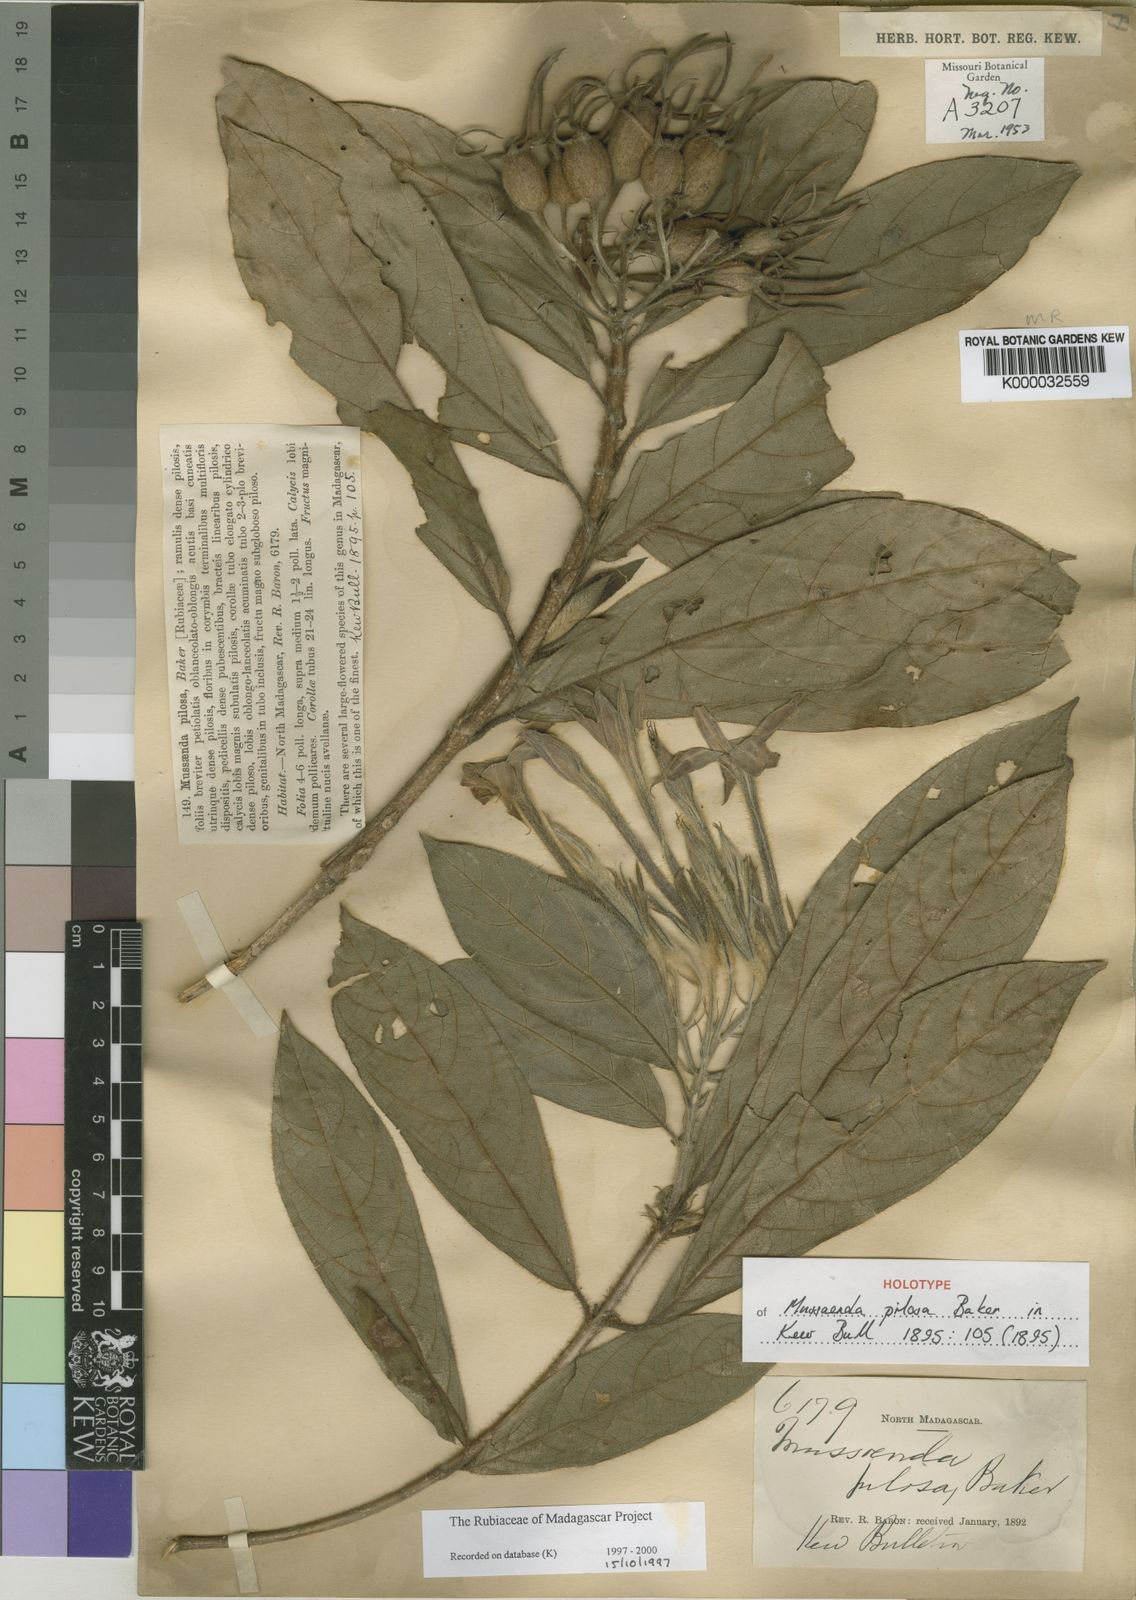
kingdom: Plantae
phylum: Tracheophyta
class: Magnoliopsida
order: Gentianales
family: Rubiaceae
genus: Bremeria
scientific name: Bremeria pilosa
